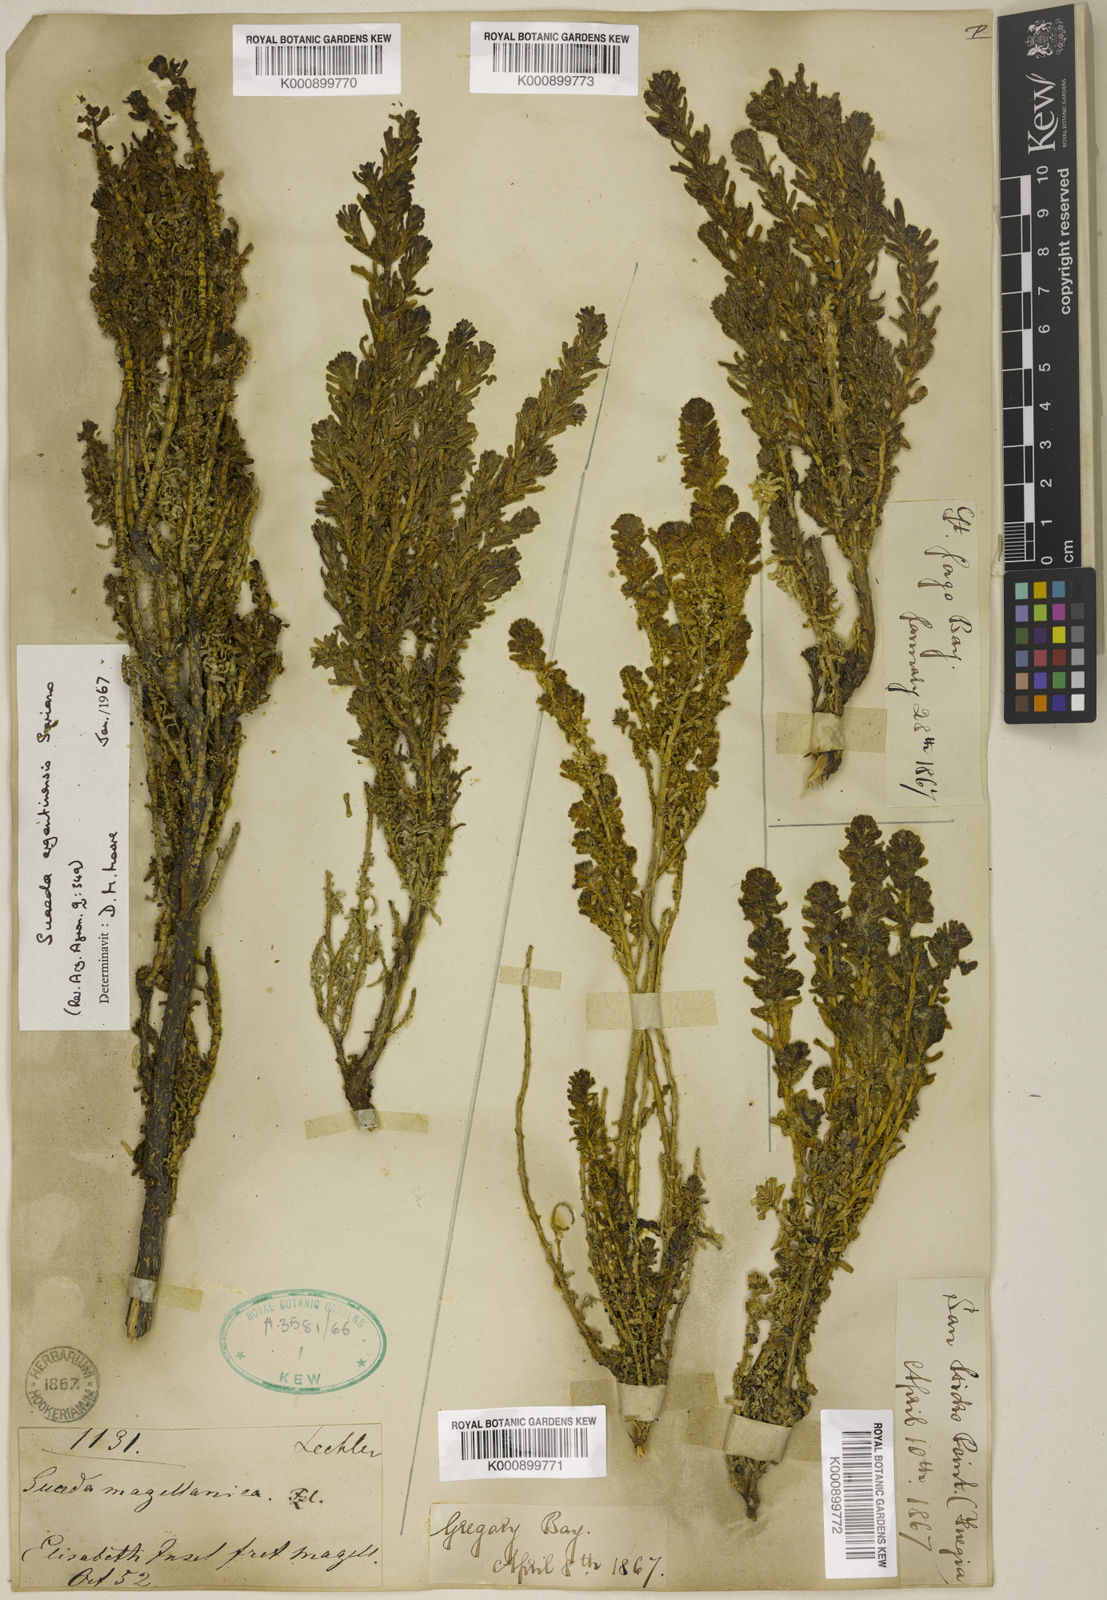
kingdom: Plantae
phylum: Tracheophyta
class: Magnoliopsida
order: Caryophyllales
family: Amaranthaceae
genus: Suaeda
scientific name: Suaeda
